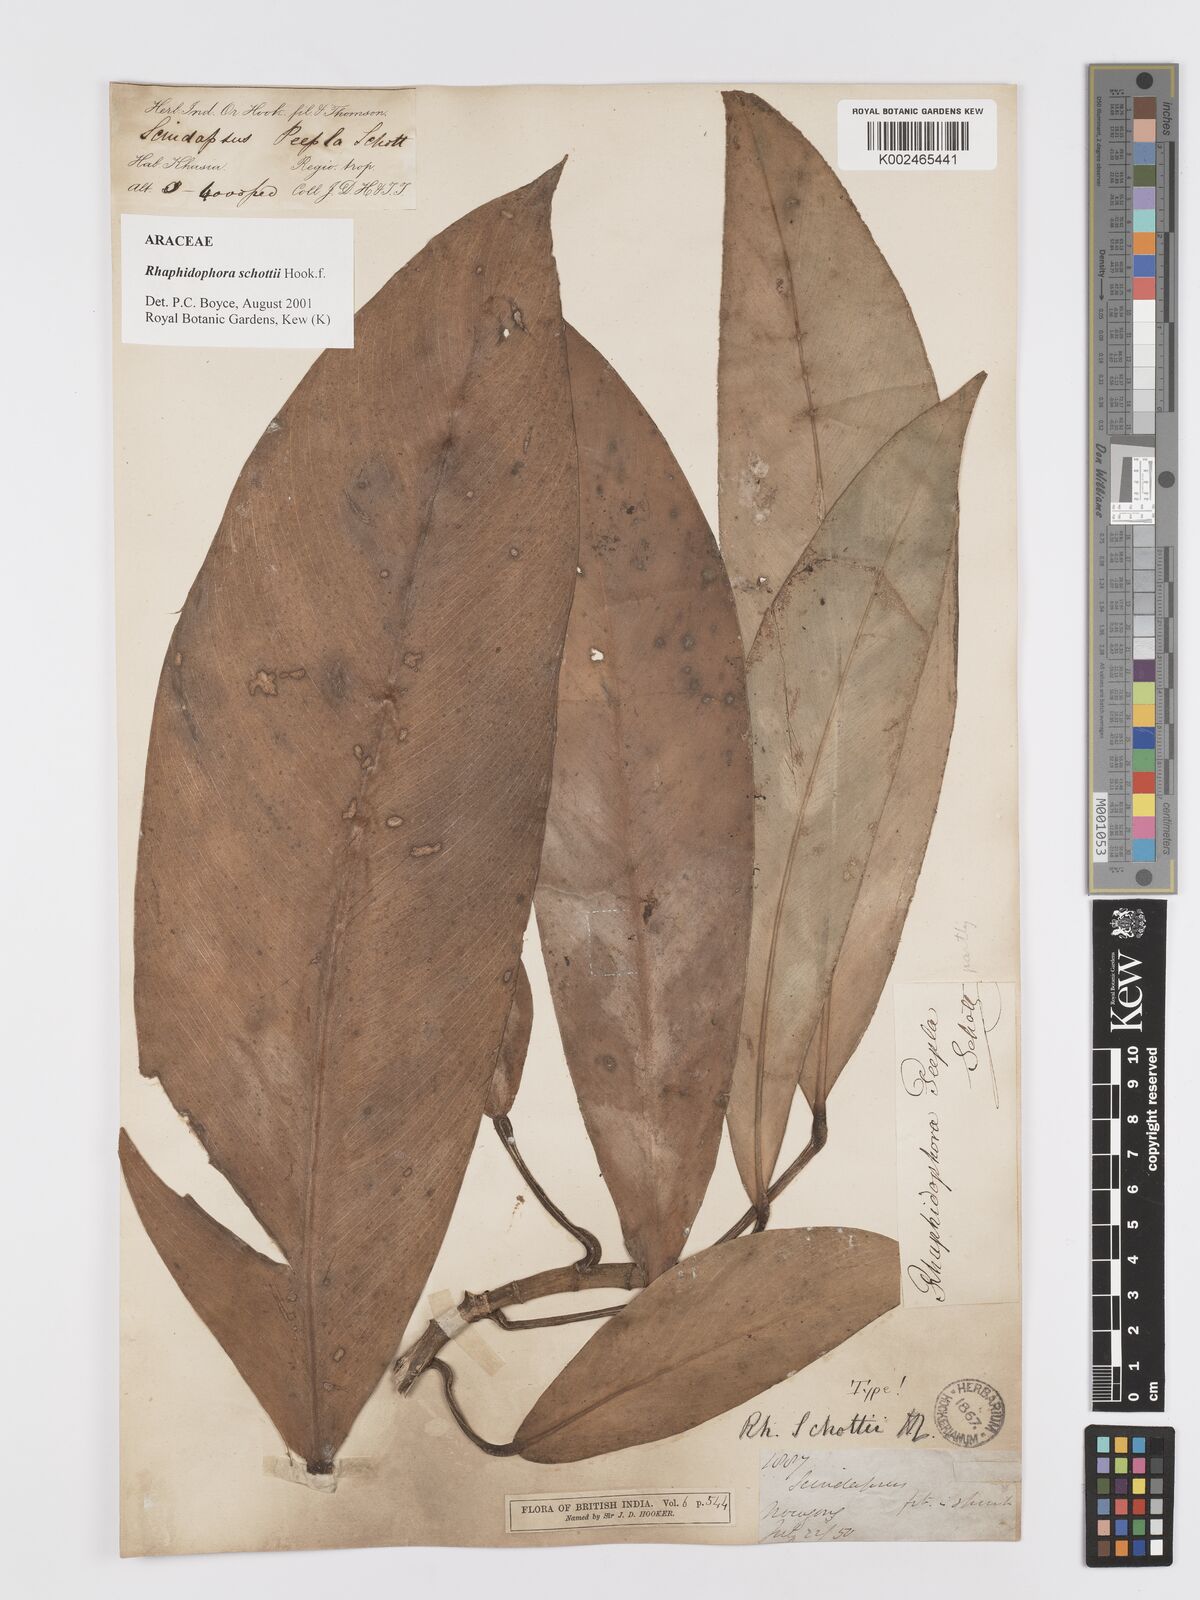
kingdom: Plantae
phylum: Tracheophyta
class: Liliopsida
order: Alismatales
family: Araceae
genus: Rhaphidophora
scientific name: Rhaphidophora schottii
